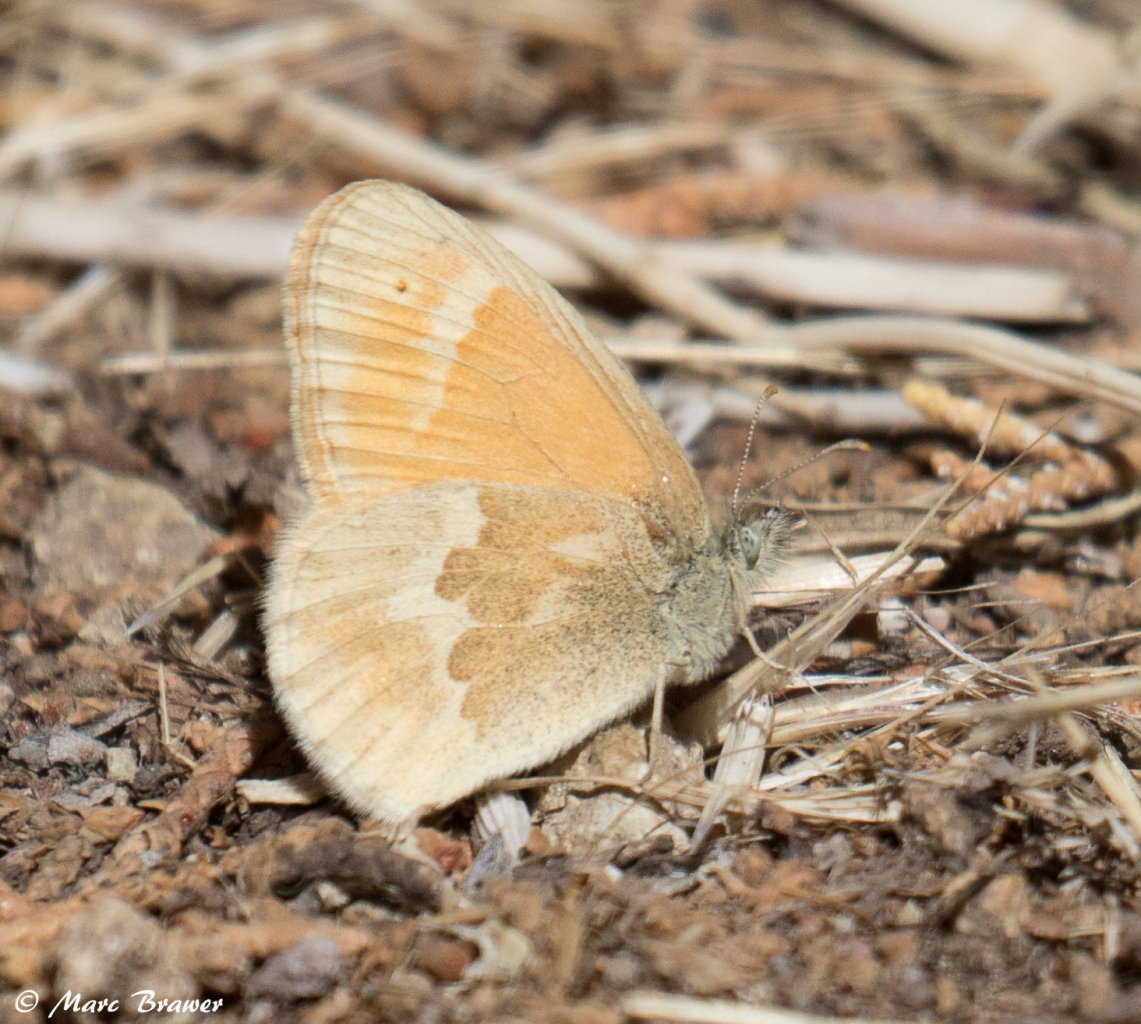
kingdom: Animalia
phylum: Arthropoda
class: Insecta
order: Lepidoptera
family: Nymphalidae
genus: Coenonympha
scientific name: Coenonympha tullia
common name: Large Heath
